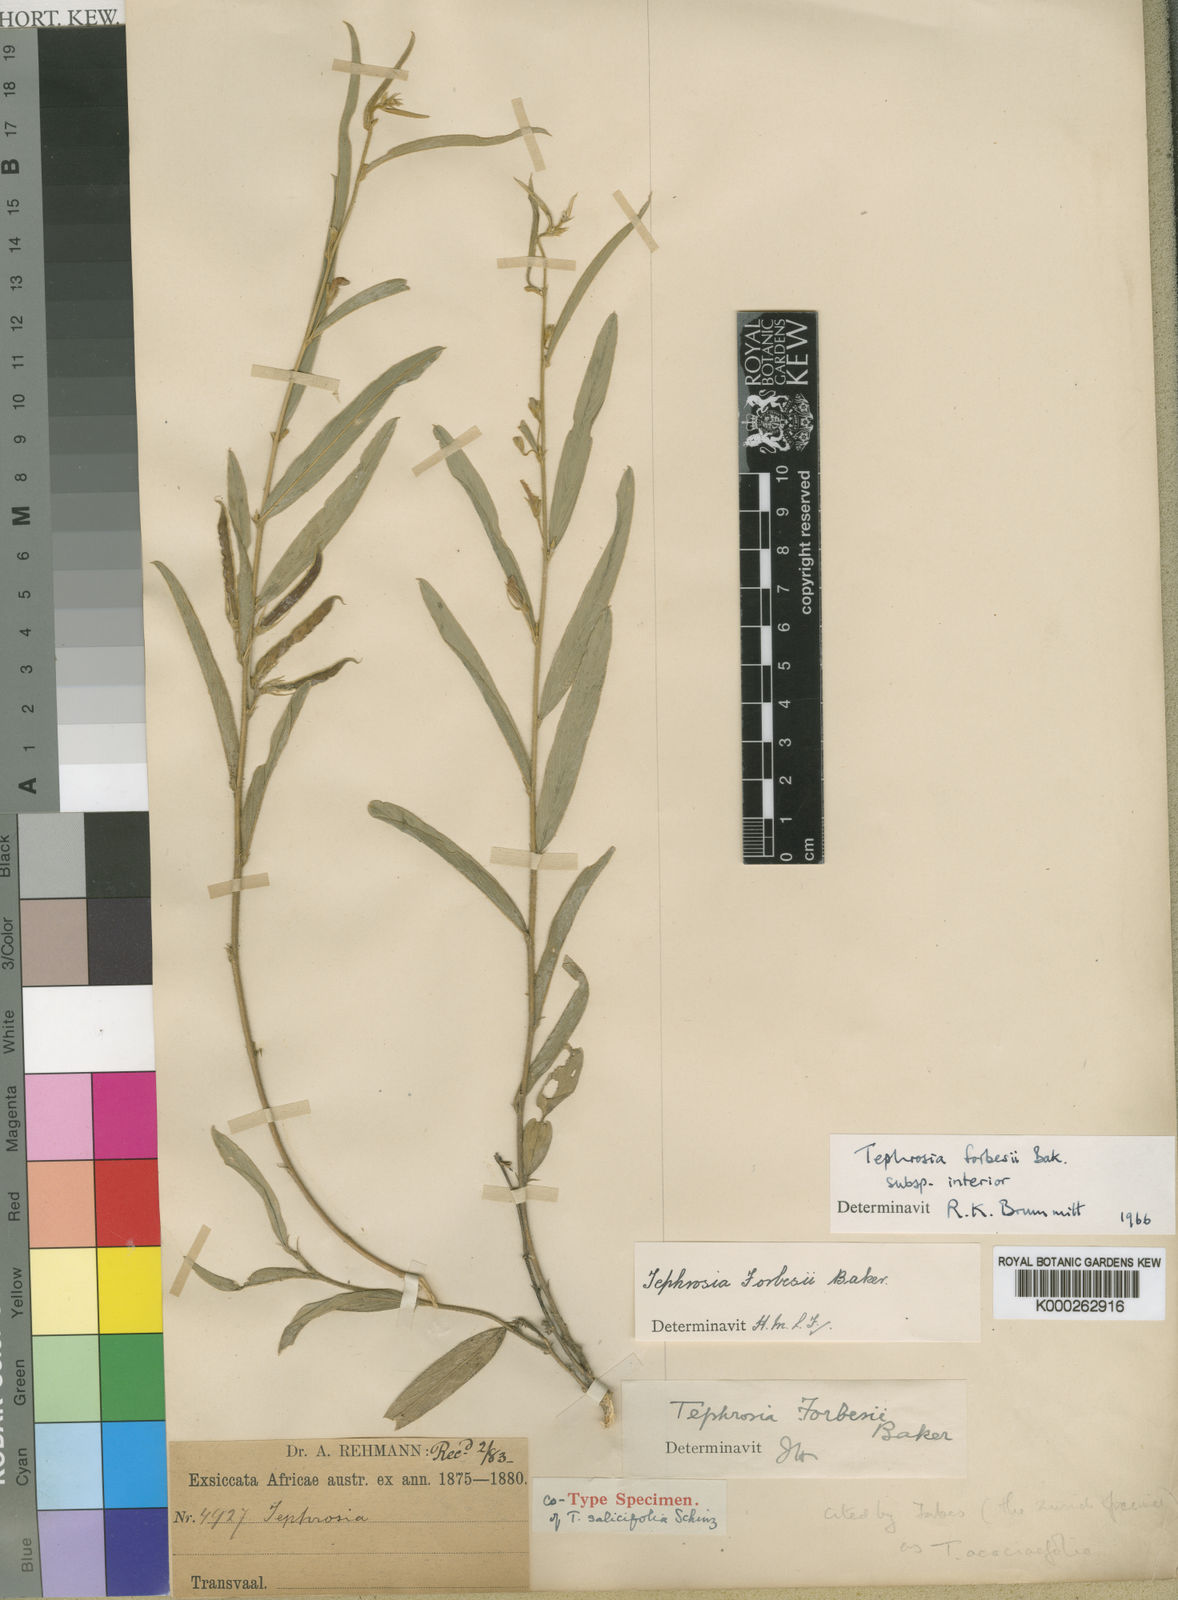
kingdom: Plantae
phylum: Tracheophyta
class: Magnoliopsida
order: Fabales
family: Fabaceae
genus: Tephrosia
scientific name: Tephrosia forbesii
